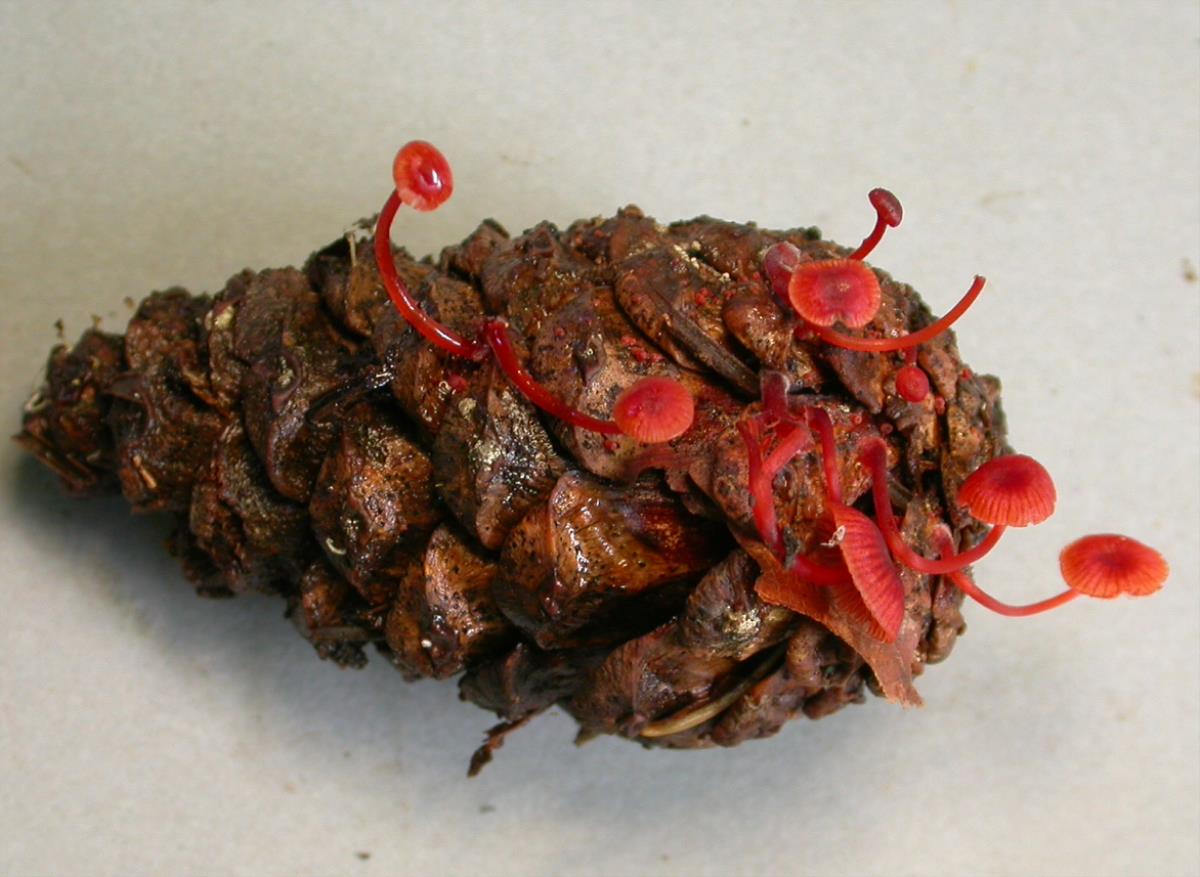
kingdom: Fungi
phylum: Basidiomycota
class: Agaricomycetes
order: Agaricales
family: Mycenaceae
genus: Cruentomycena
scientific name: Cruentomycena viscidocruenta
